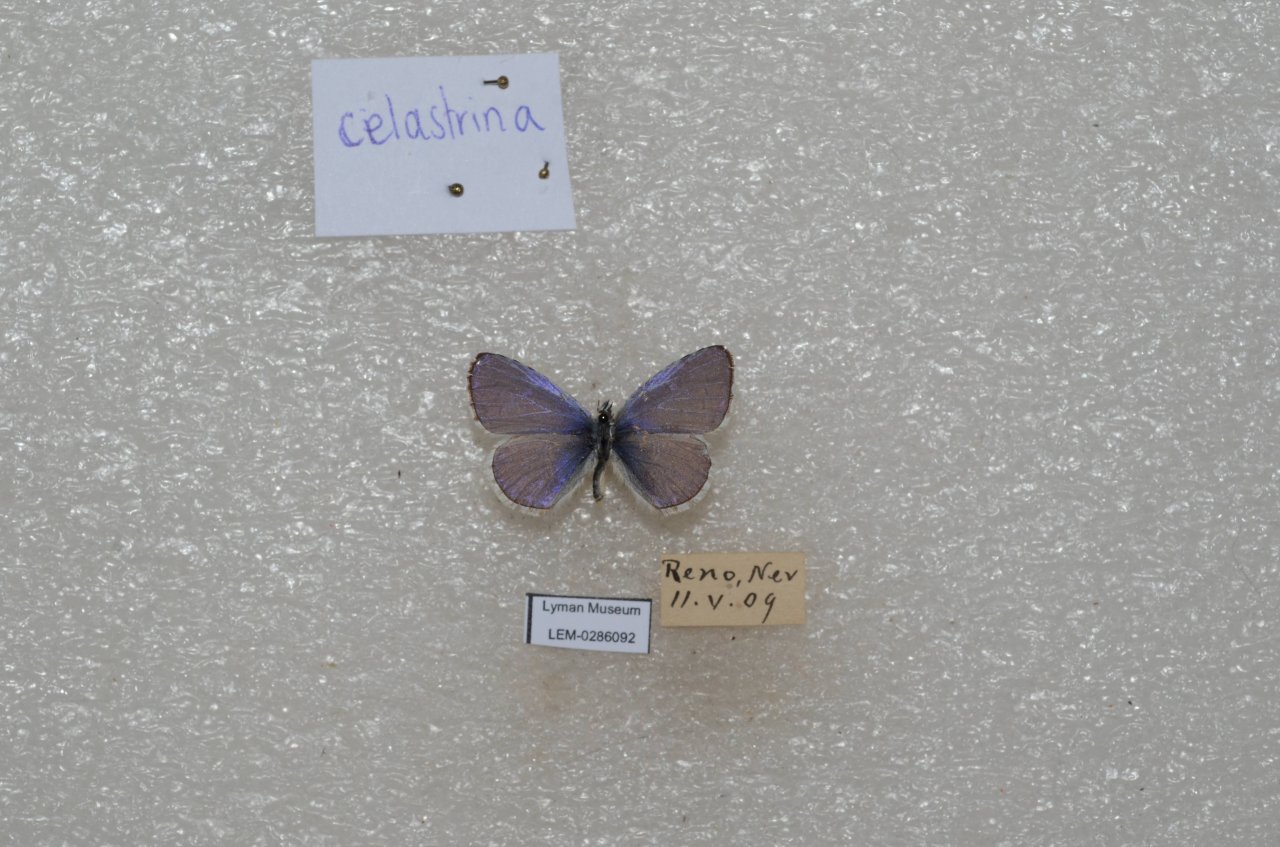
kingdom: Animalia
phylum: Arthropoda
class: Insecta
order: Lepidoptera
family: Lycaenidae
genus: Celastrina
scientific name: Celastrina
